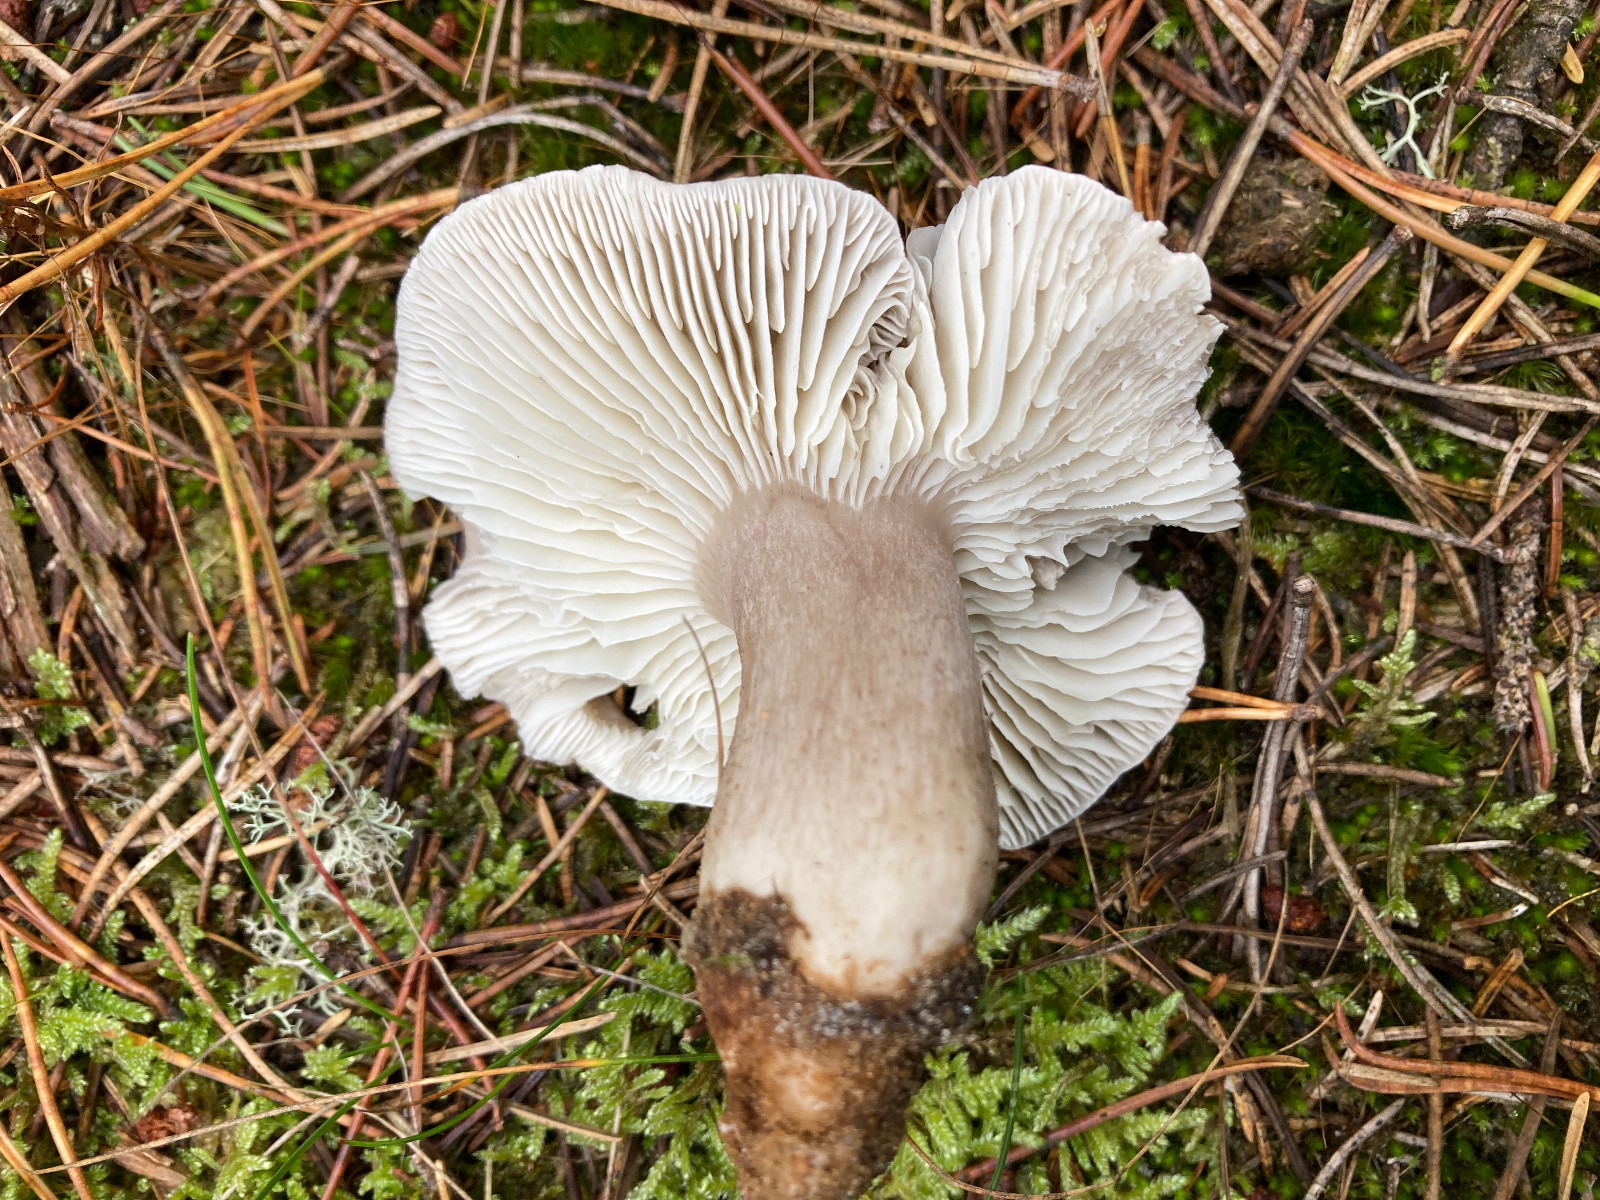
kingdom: Fungi
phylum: Basidiomycota
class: Agaricomycetes
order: Agaricales
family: Tricholomataceae
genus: Tricholoma
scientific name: Tricholoma sudum
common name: tør ridderhat
